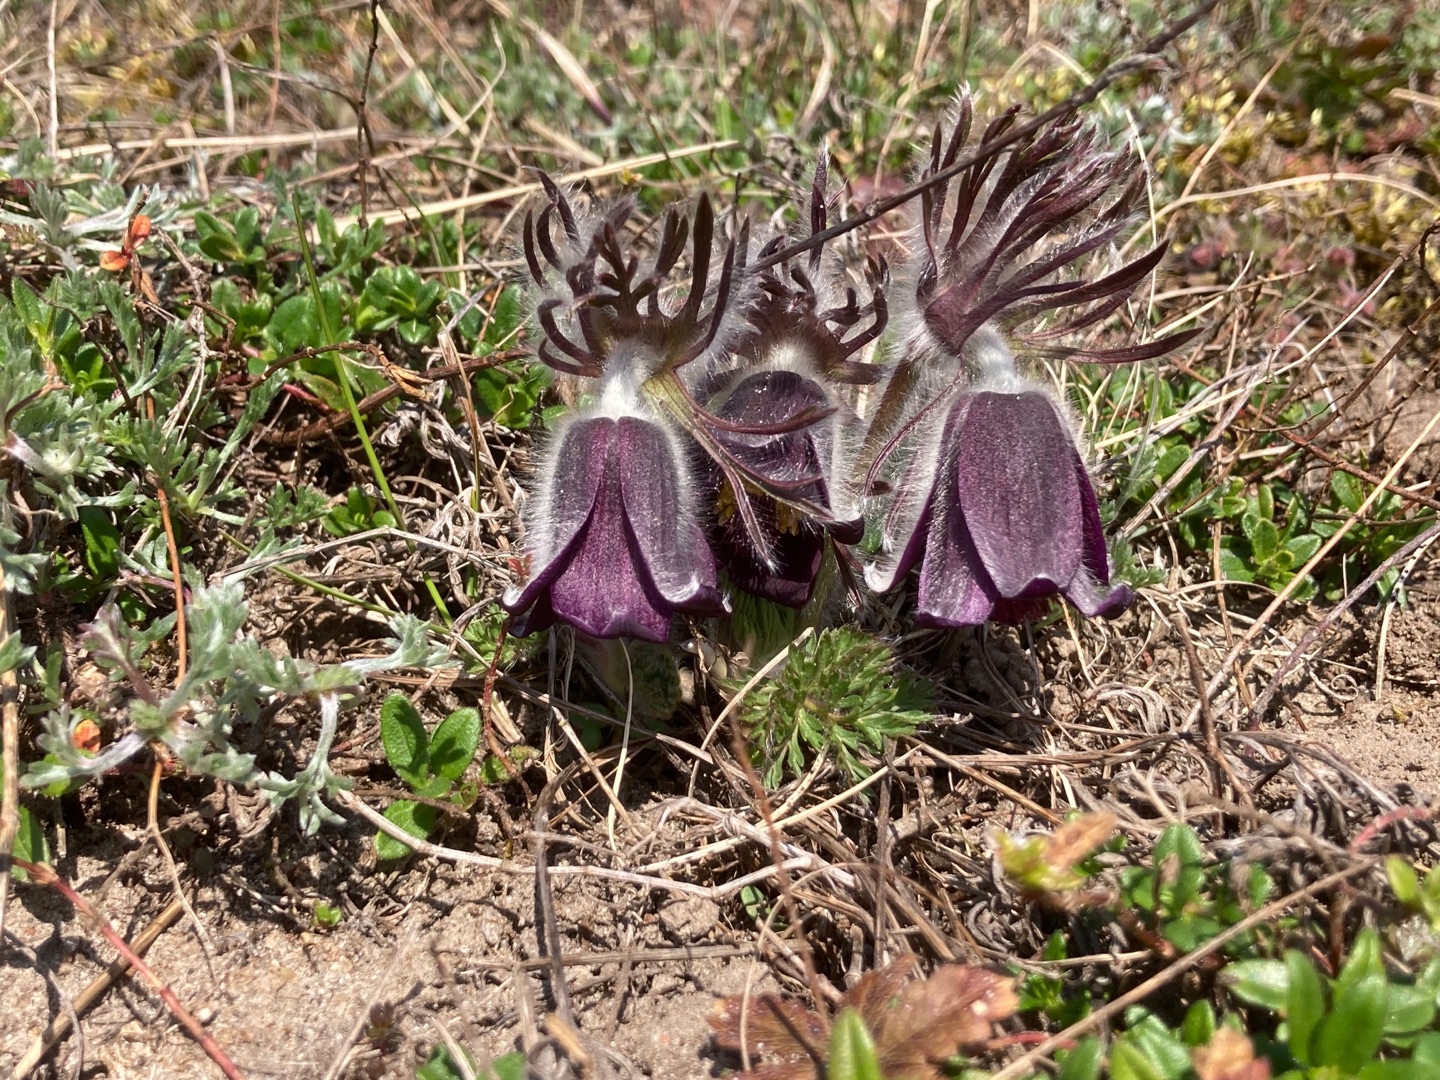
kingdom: Plantae
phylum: Tracheophyta
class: Magnoliopsida
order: Ranunculales
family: Ranunculaceae
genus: Pulsatilla
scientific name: Pulsatilla pratensis
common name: Nikkende kobjælde
